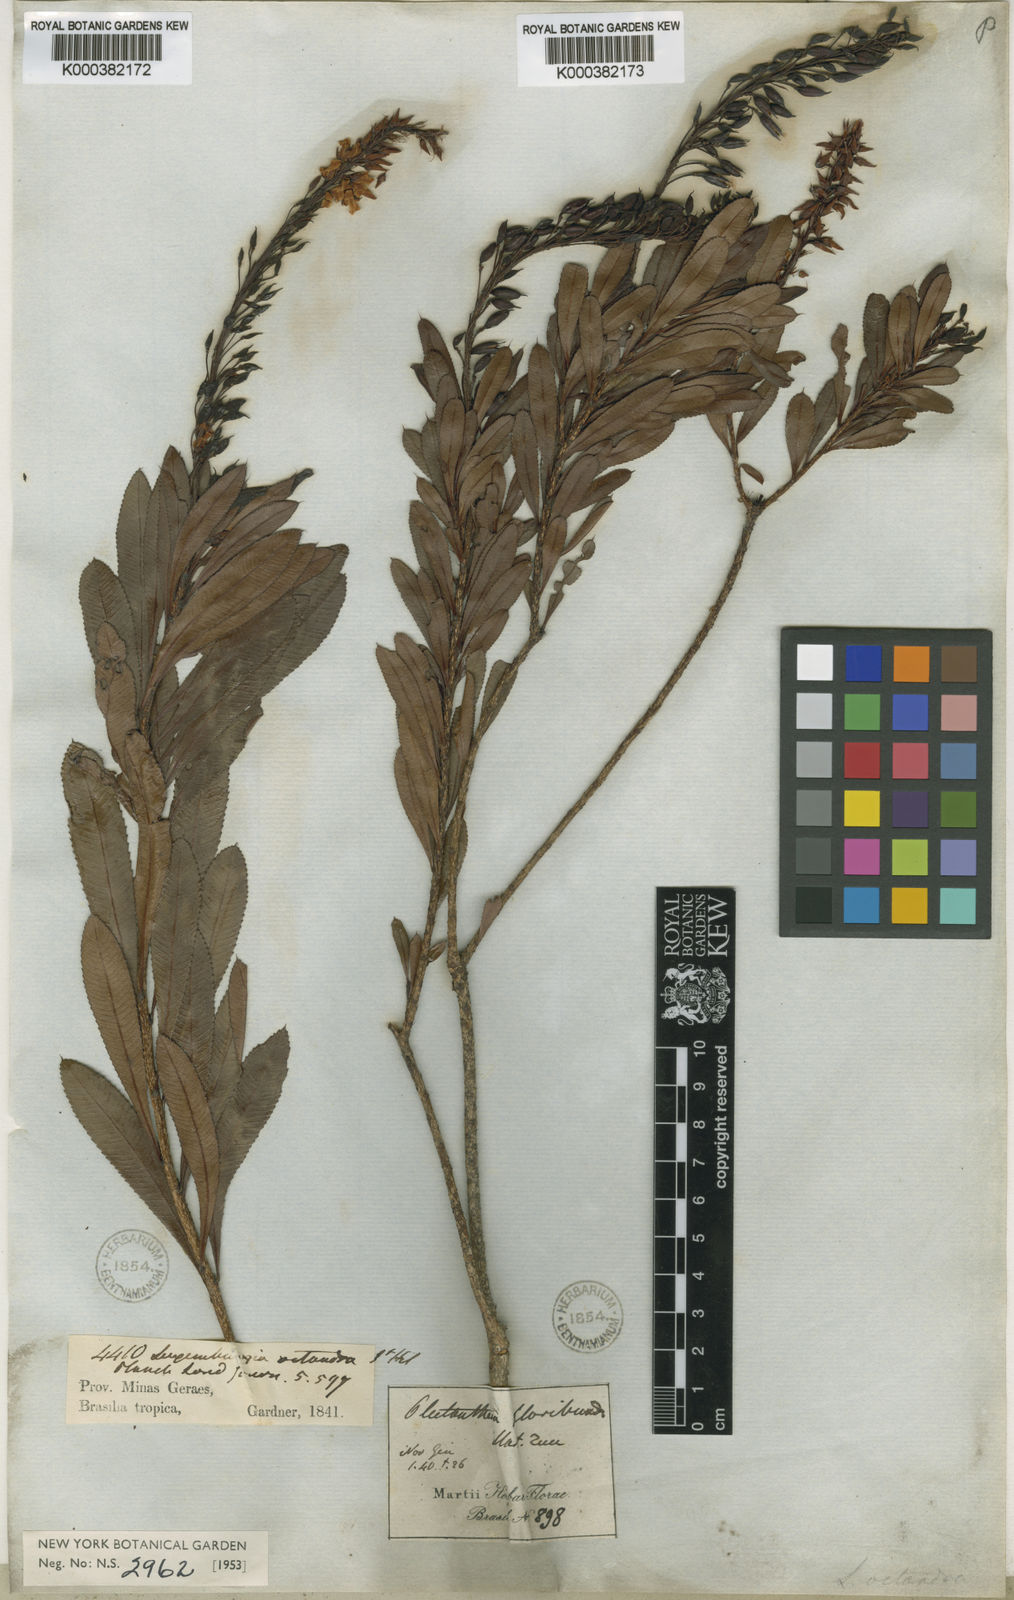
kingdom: Plantae
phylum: Tracheophyta
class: Magnoliopsida
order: Malpighiales
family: Ochnaceae
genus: Luxemburgia
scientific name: Luxemburgia octandra
